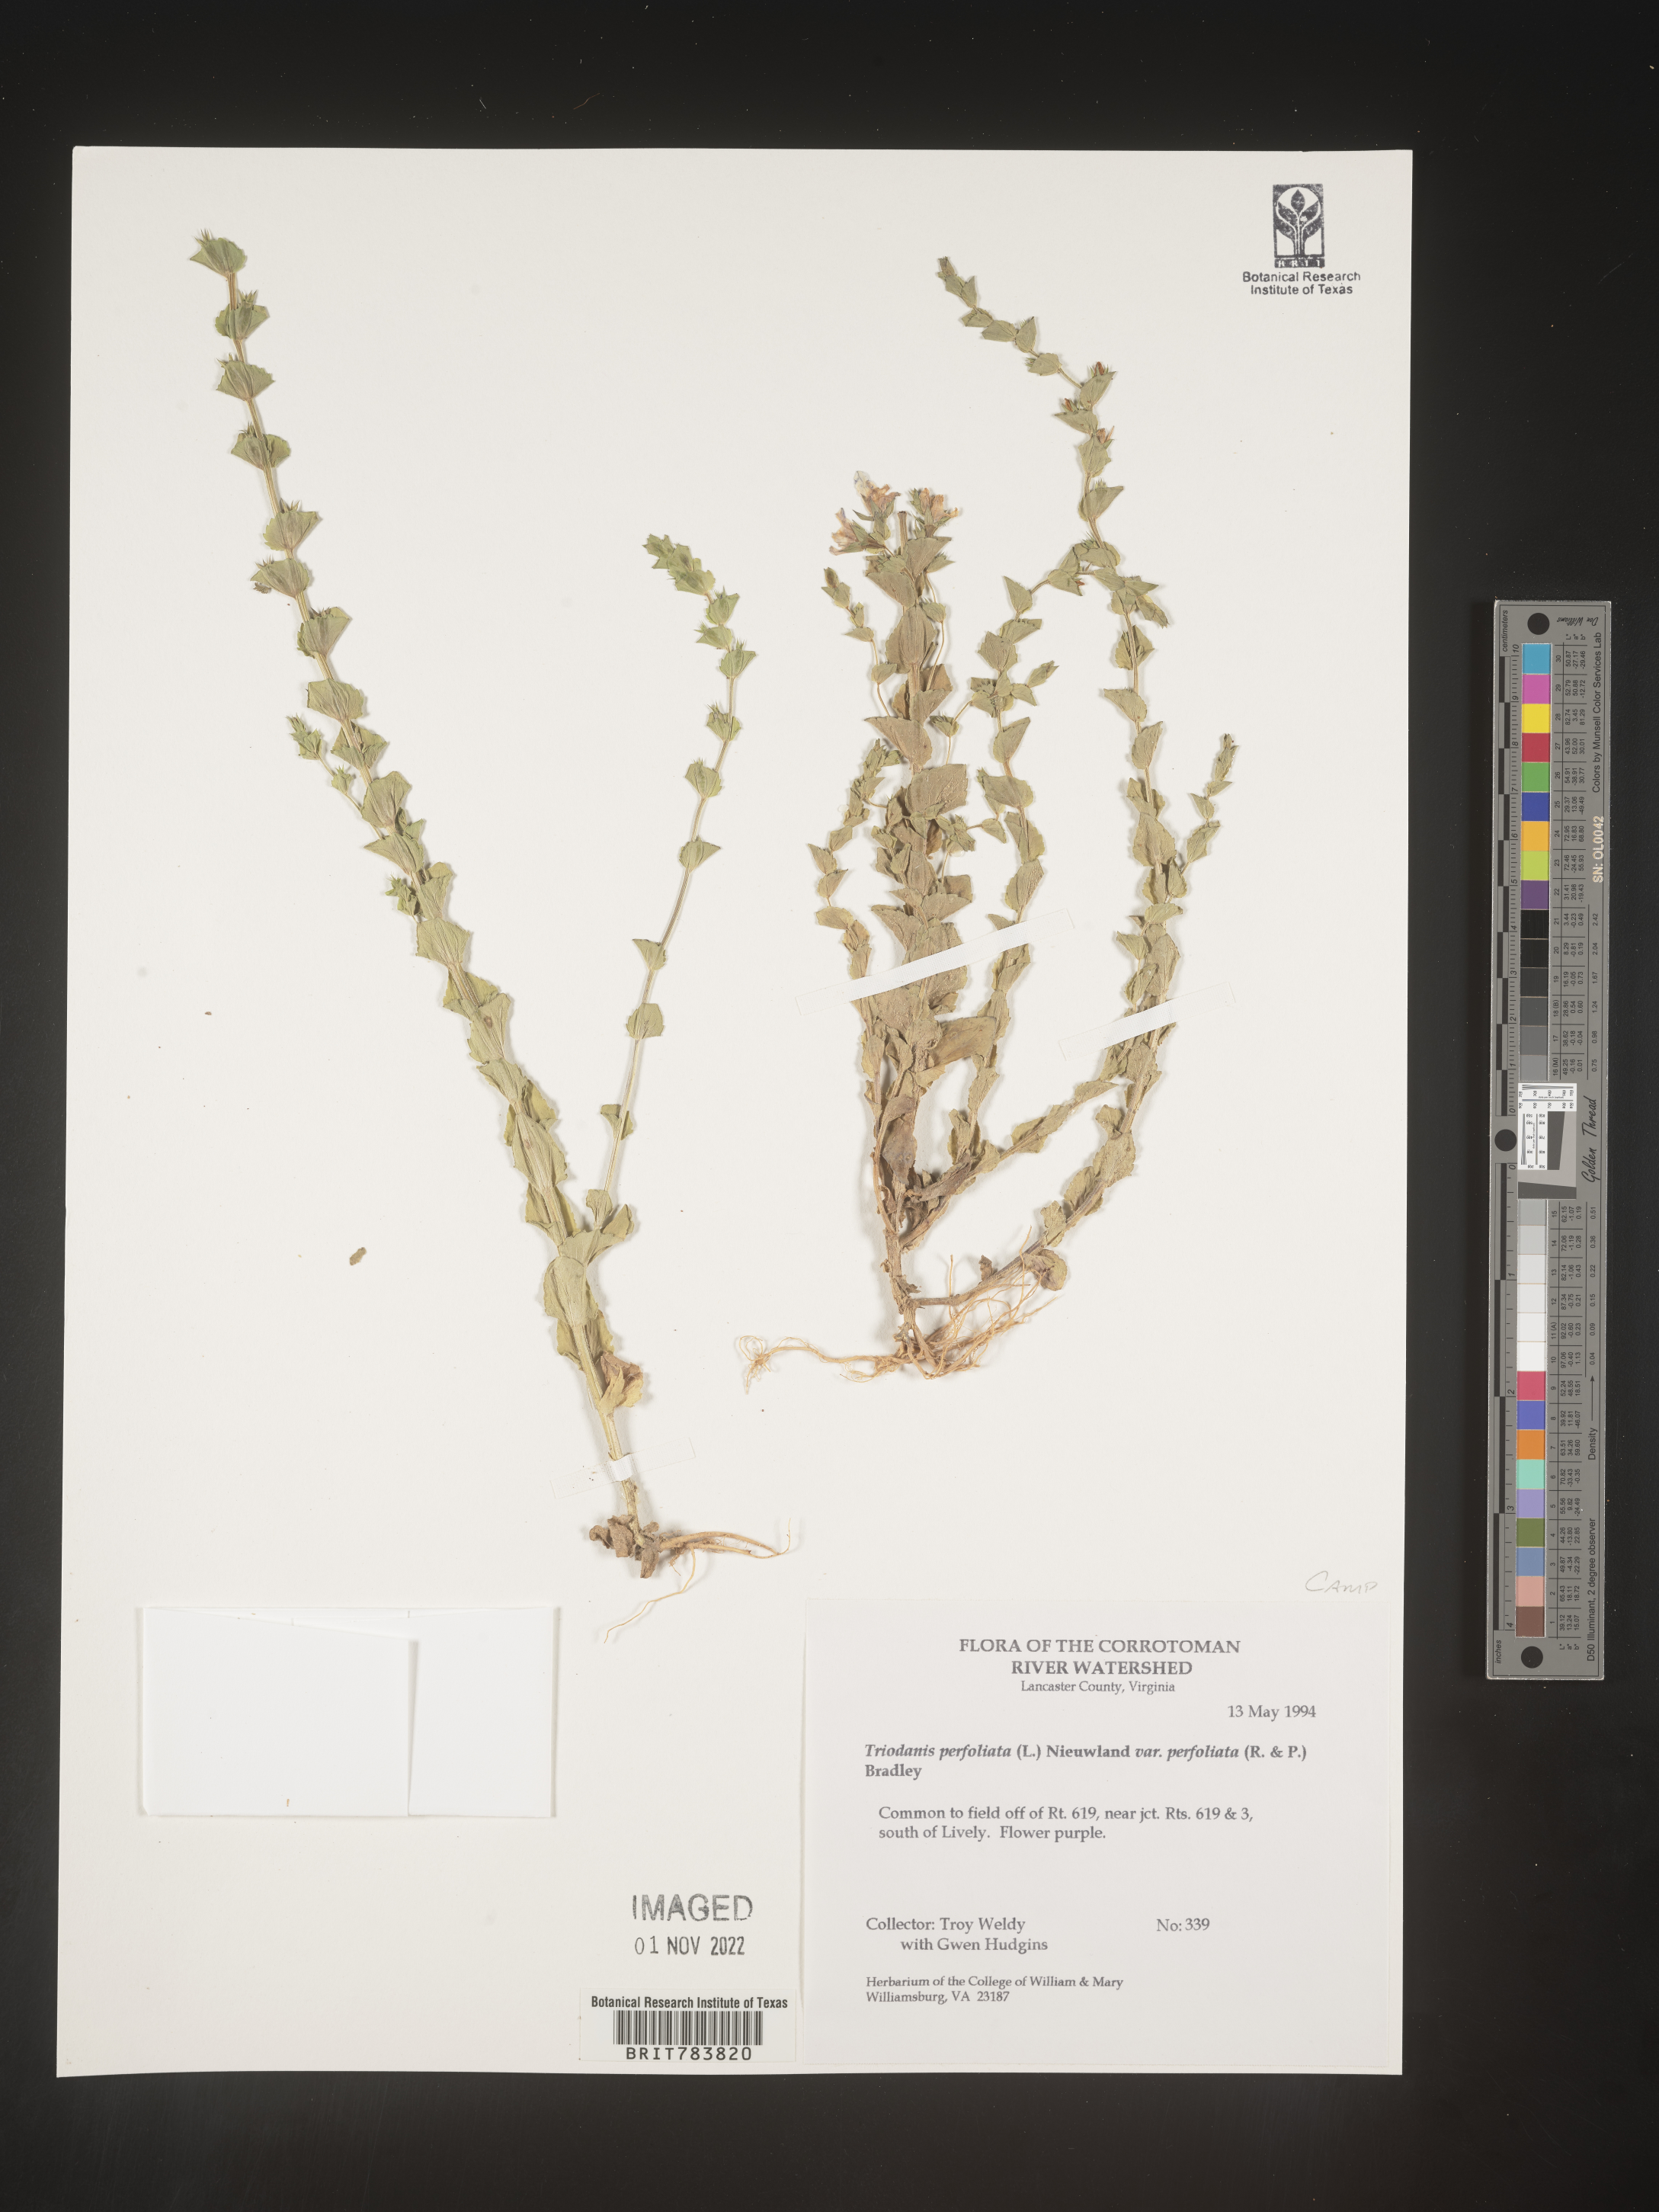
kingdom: Plantae
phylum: Tracheophyta
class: Magnoliopsida
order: Asterales
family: Campanulaceae
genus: Triodanis
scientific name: Triodanis perfoliata
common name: Clasping venus' looking-glass
